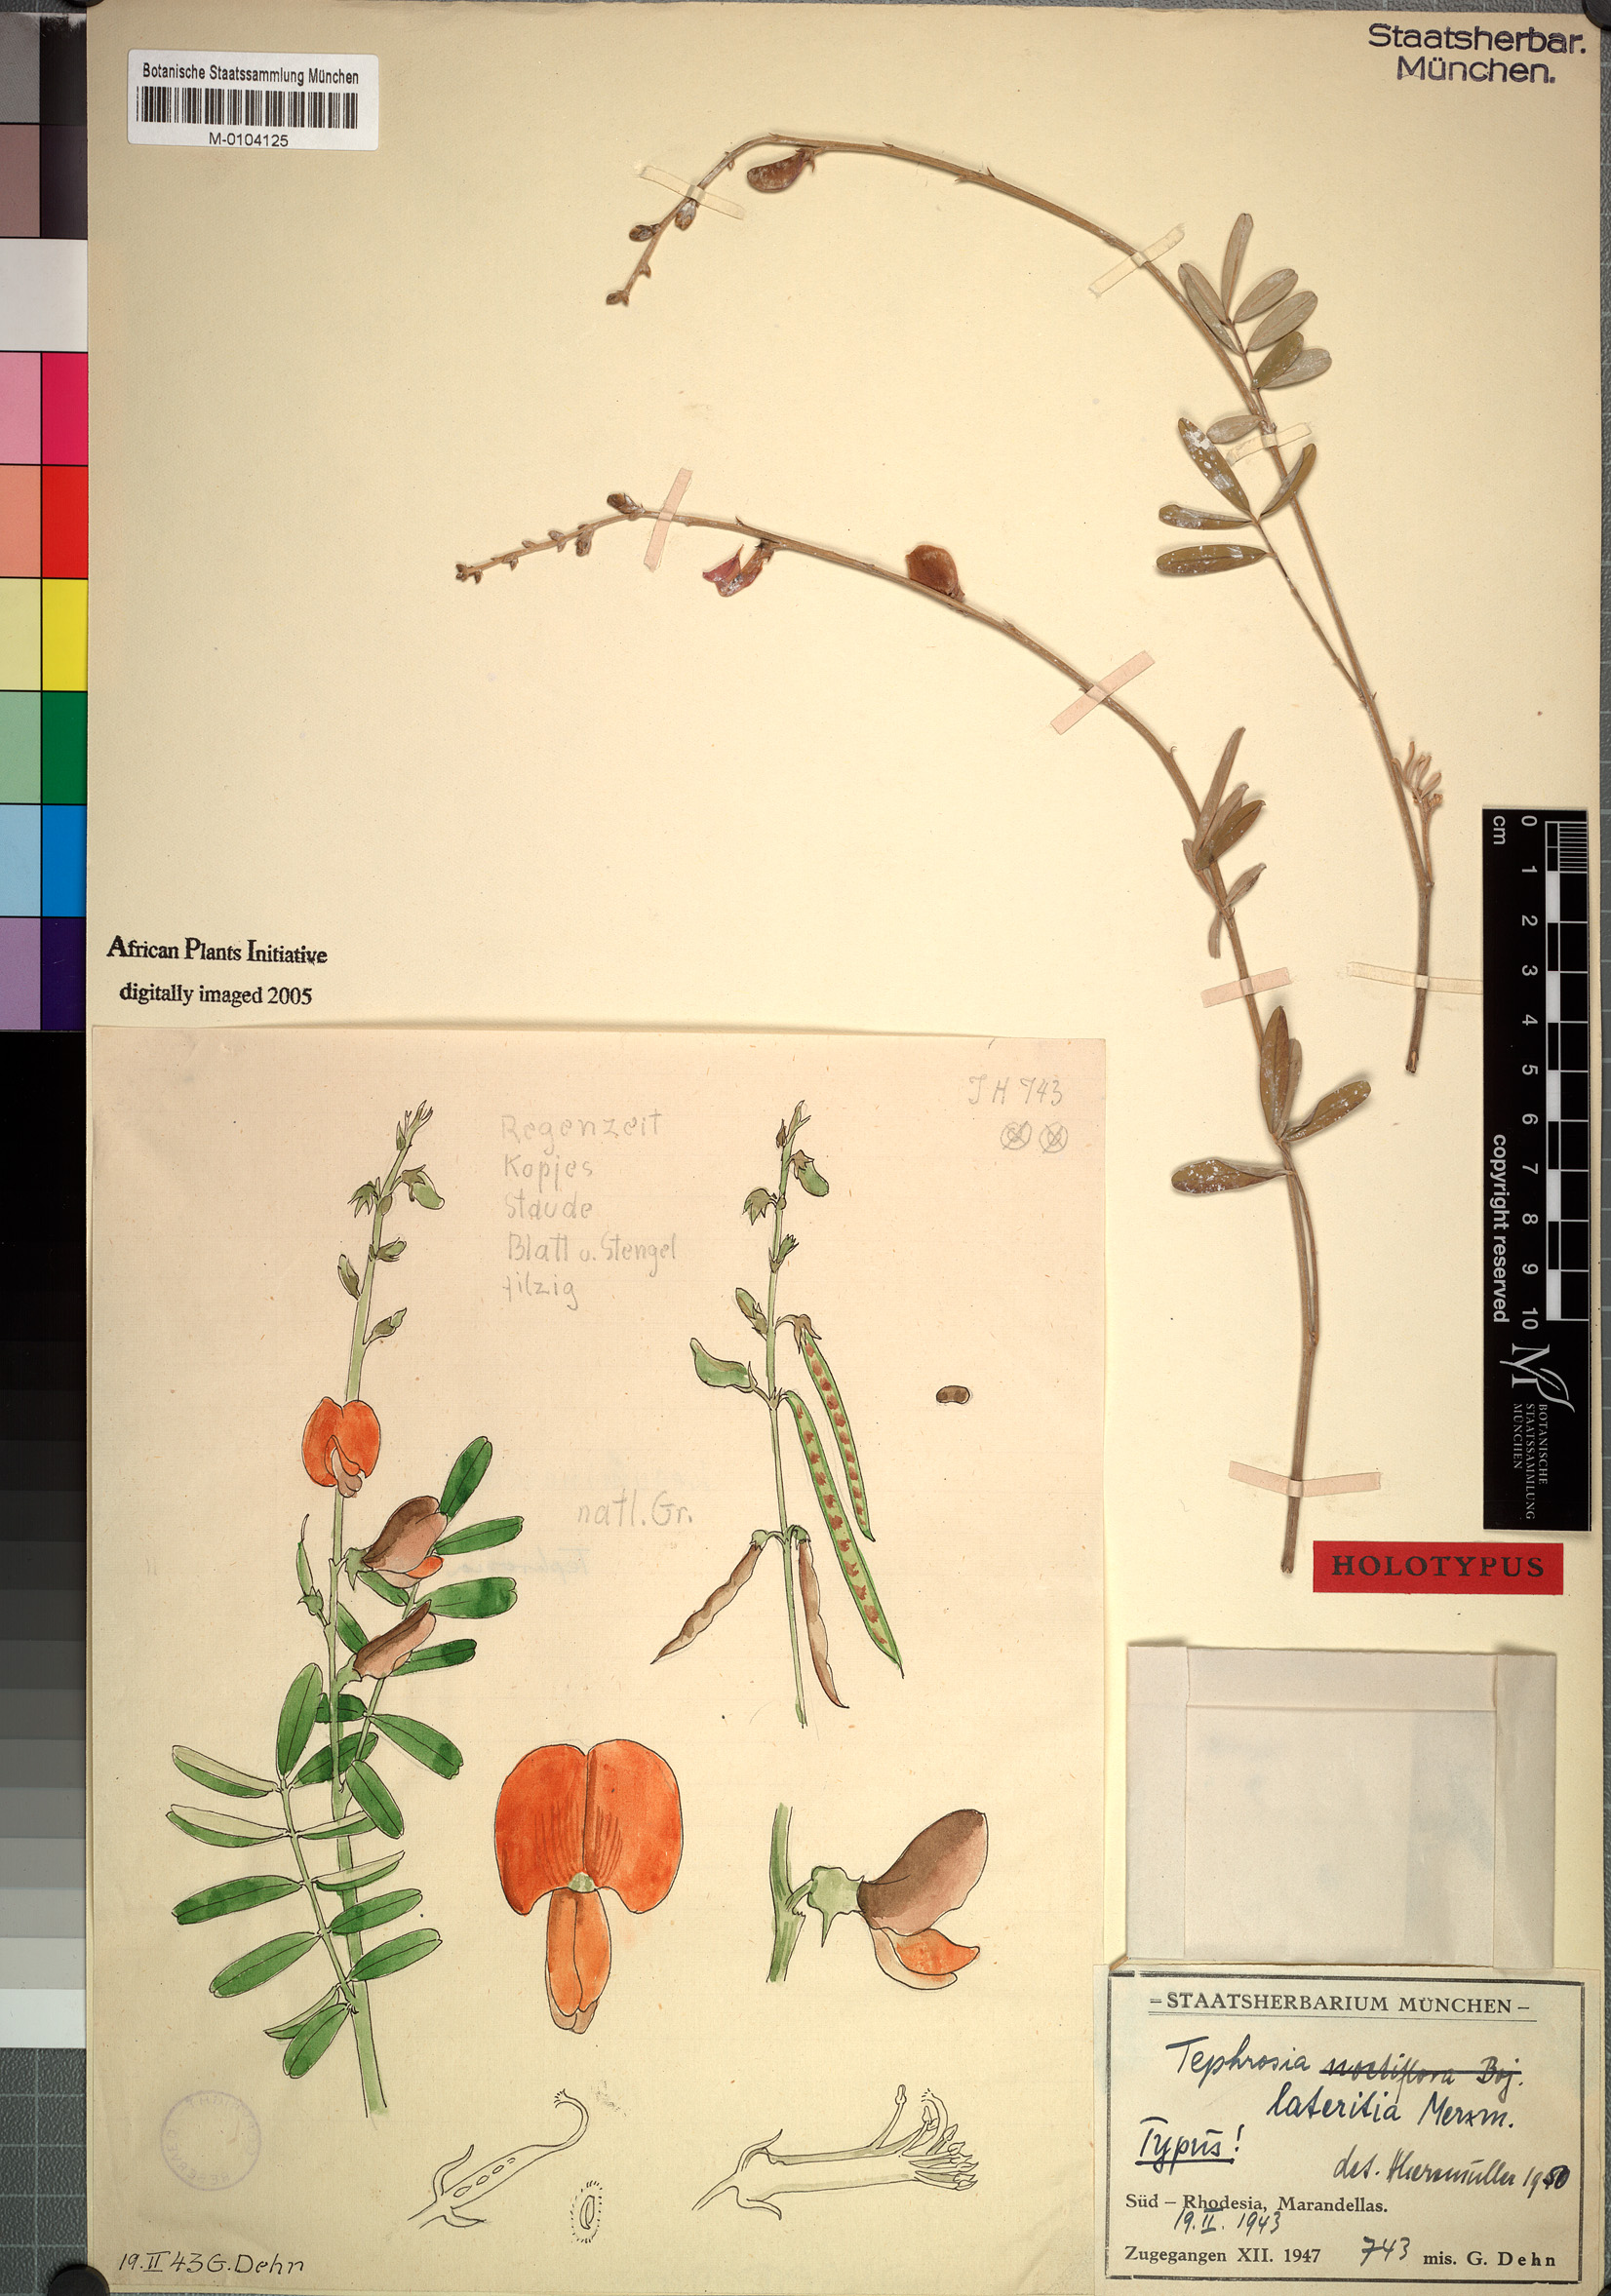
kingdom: Plantae
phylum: Tracheophyta
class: Magnoliopsida
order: Fabales
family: Fabaceae
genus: Tephrosia
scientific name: Tephrosia decora
